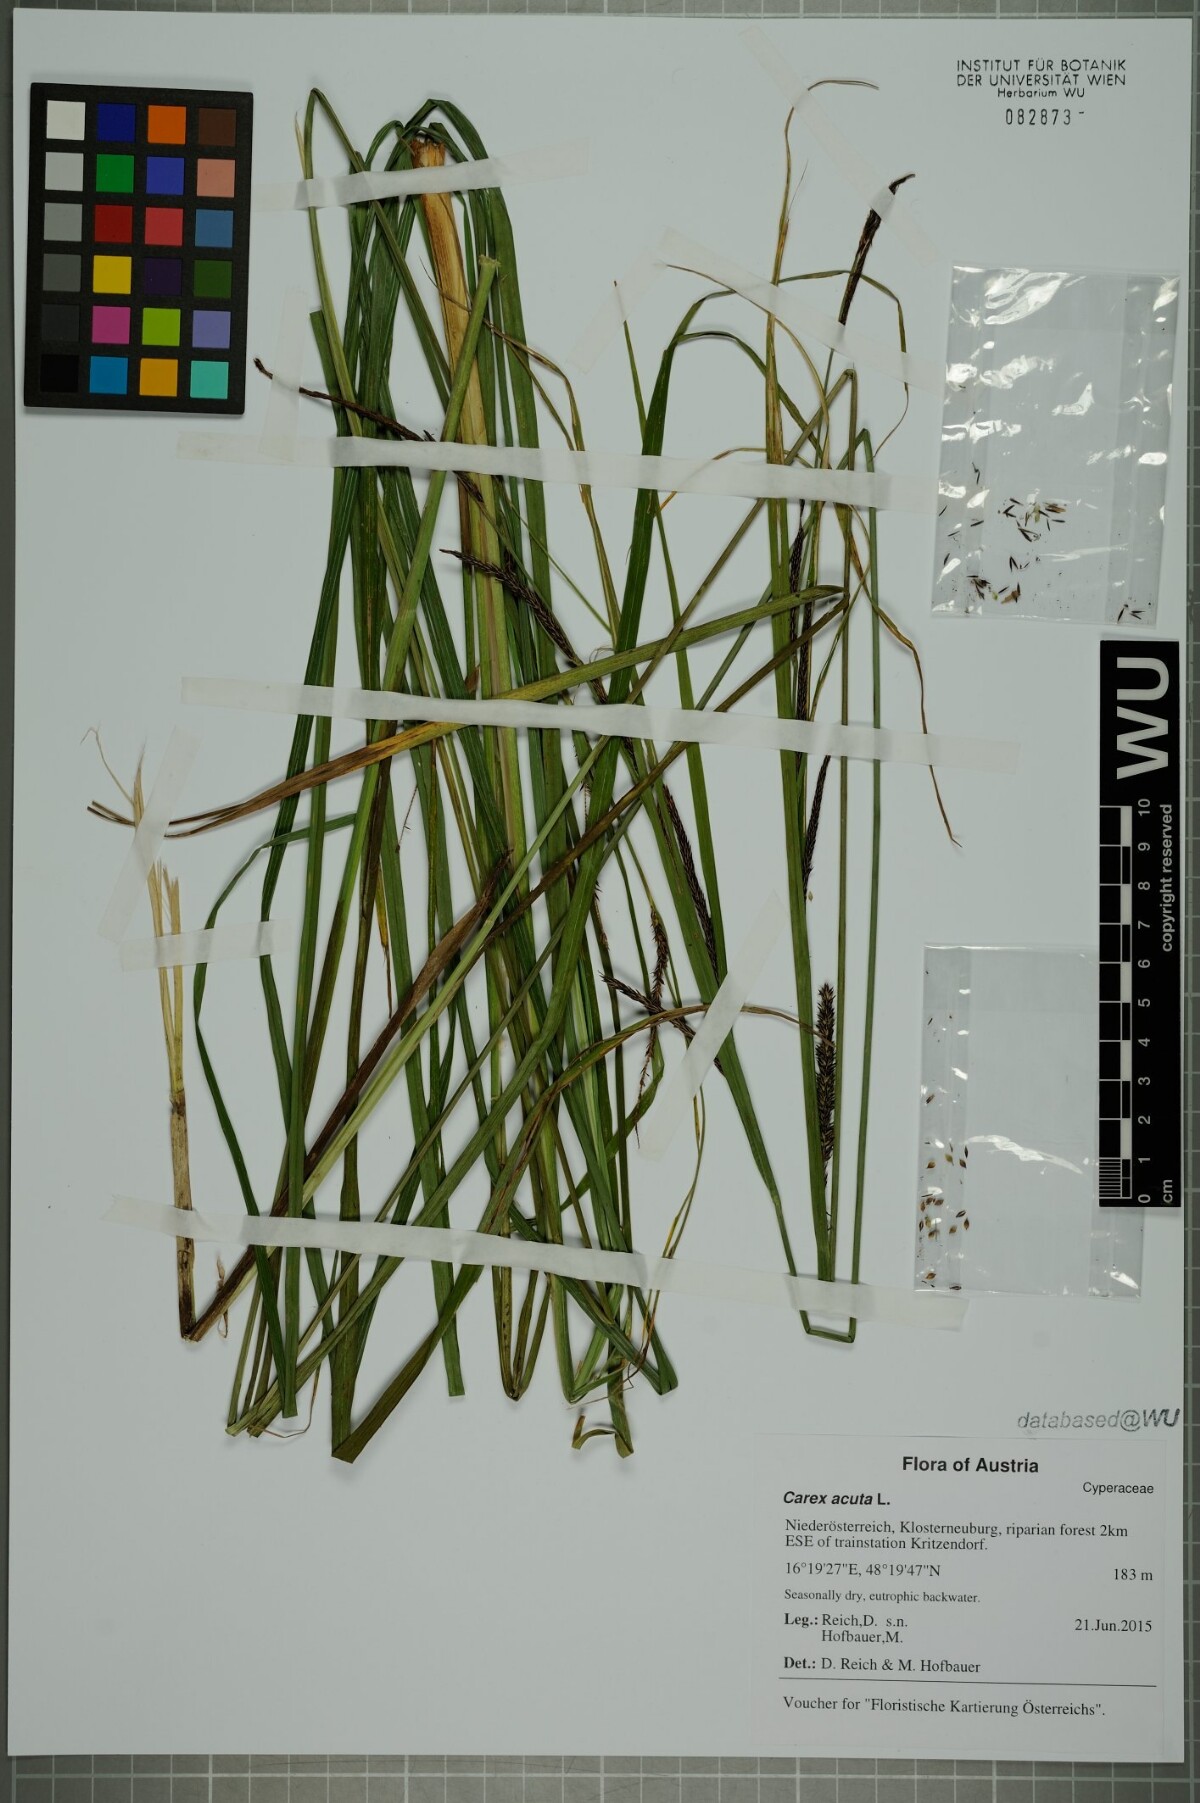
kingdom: Plantae
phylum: Tracheophyta
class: Liliopsida
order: Poales
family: Cyperaceae
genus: Carex
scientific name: Carex acuta
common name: Slender tufted-sedge
